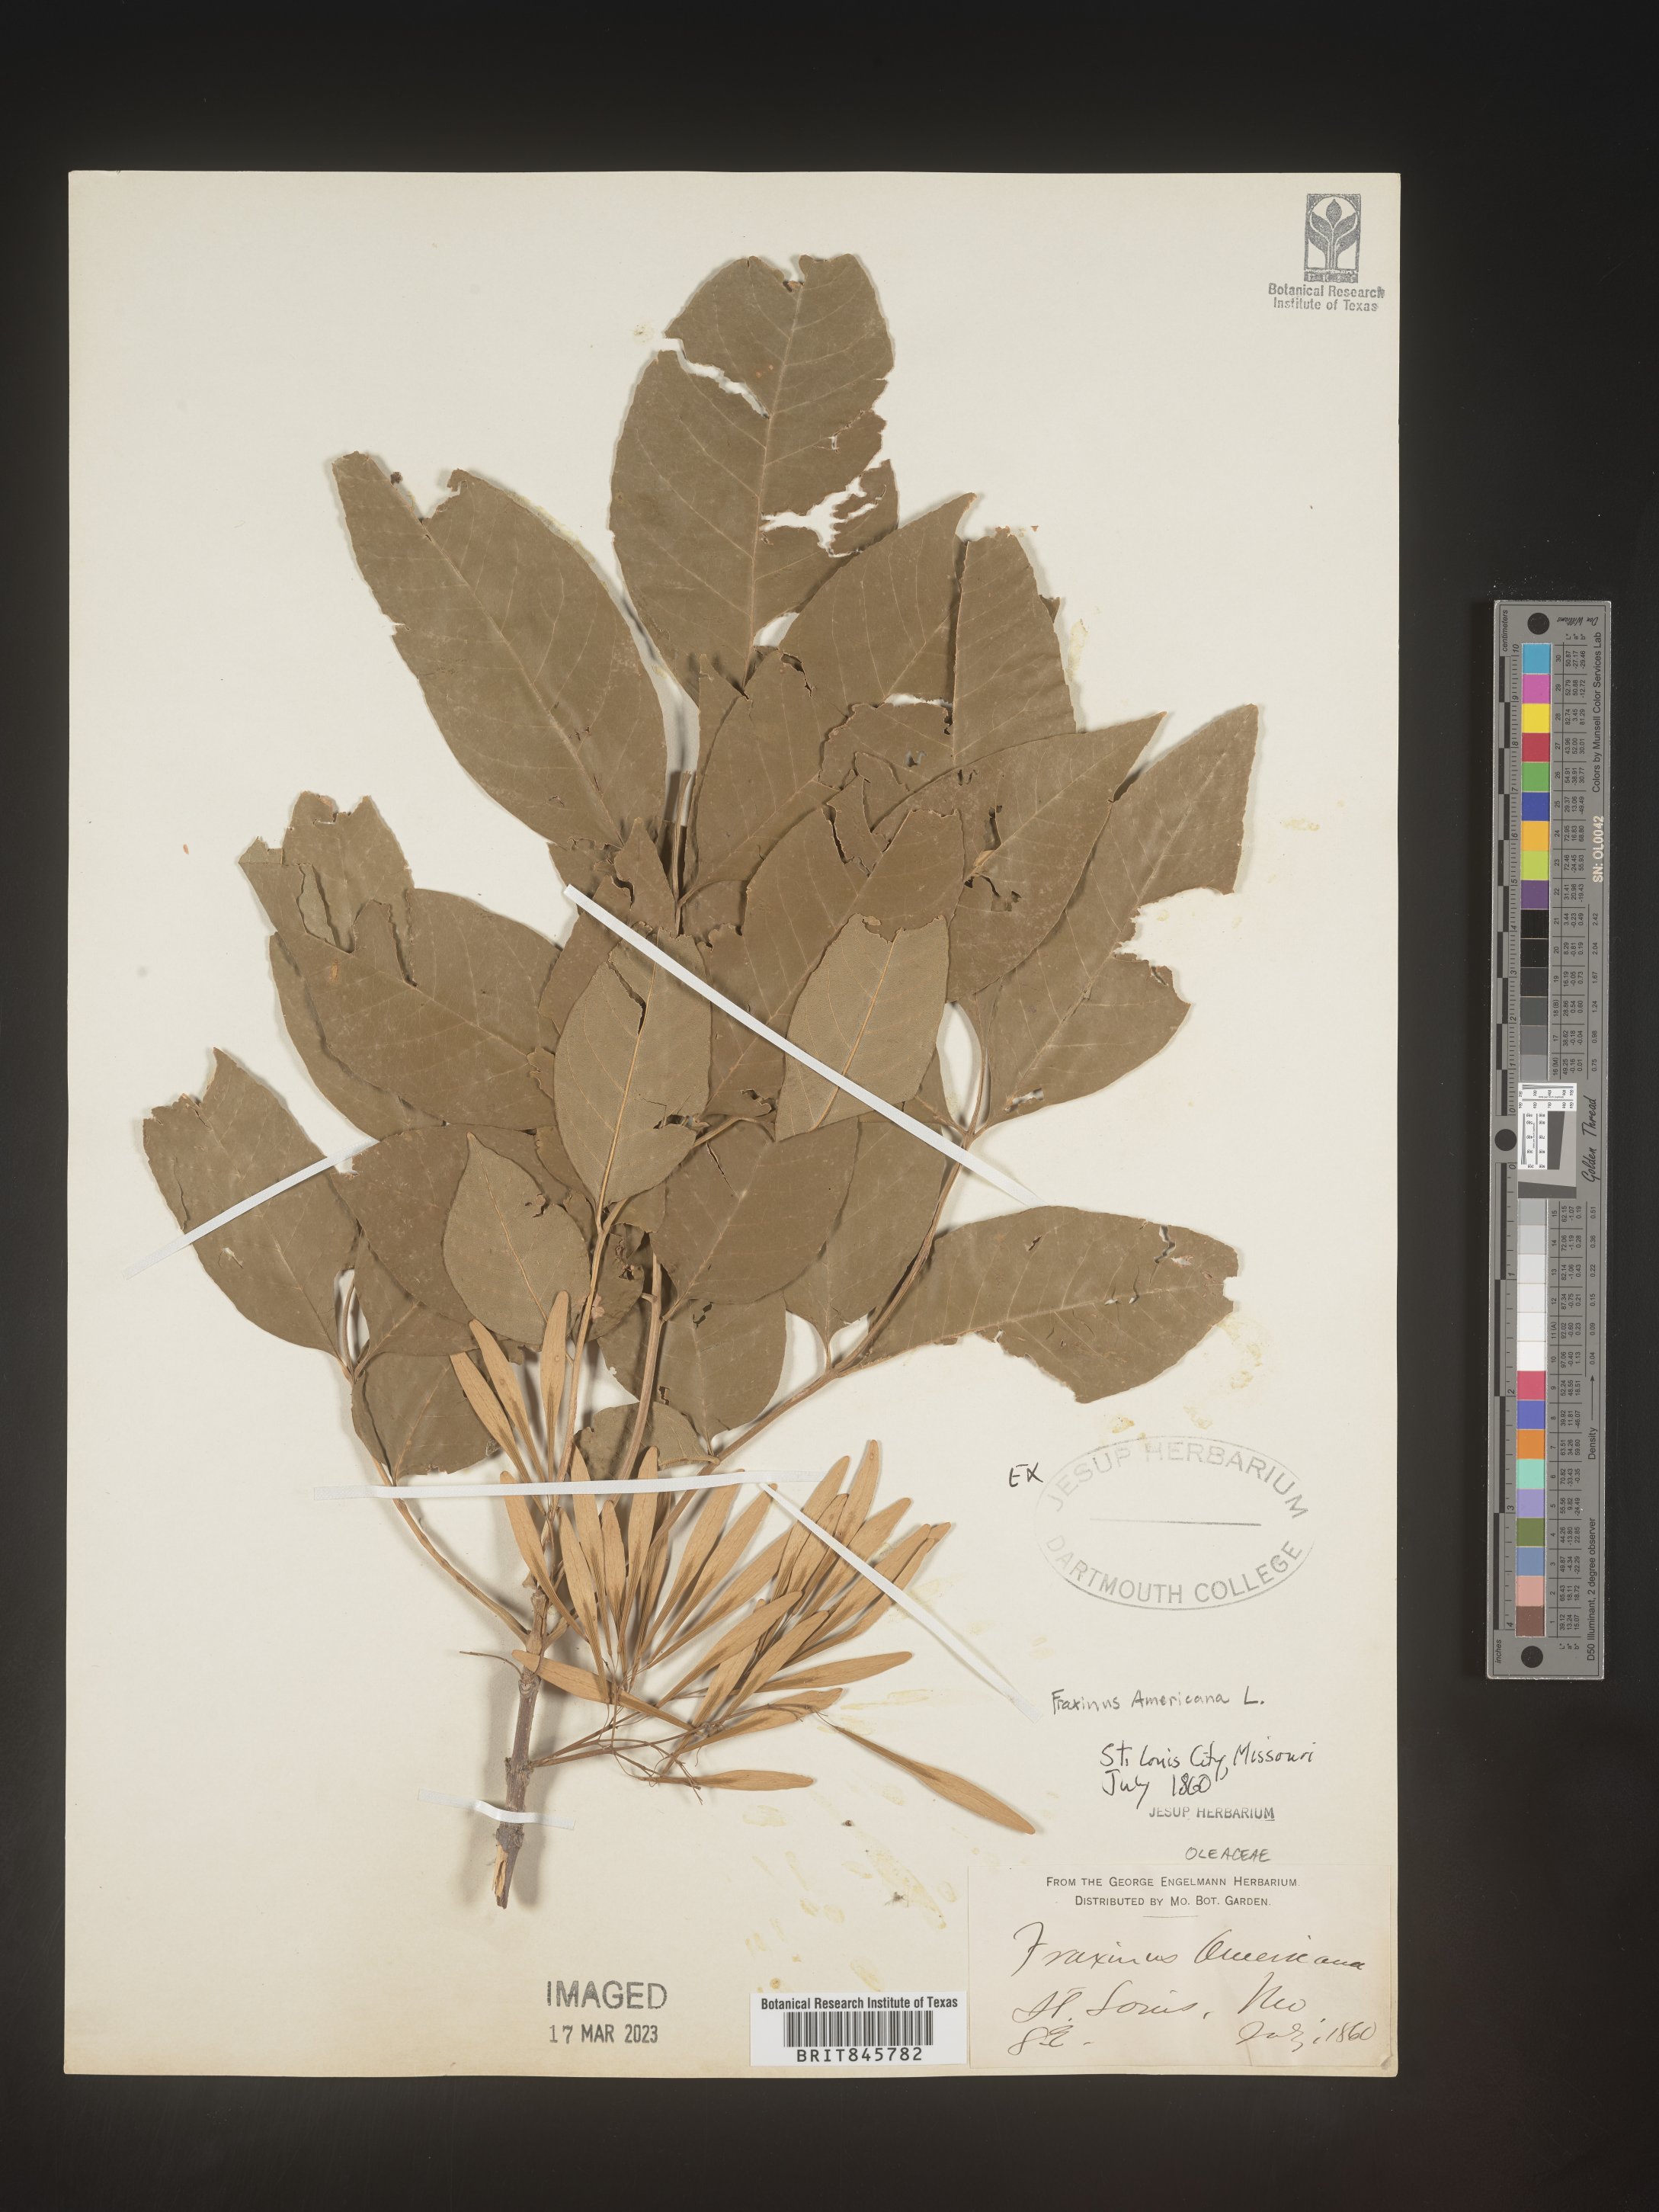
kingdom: Plantae
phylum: Tracheophyta
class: Magnoliopsida
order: Lamiales
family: Oleaceae
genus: Fraxinus
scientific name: Fraxinus americana
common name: White ash
